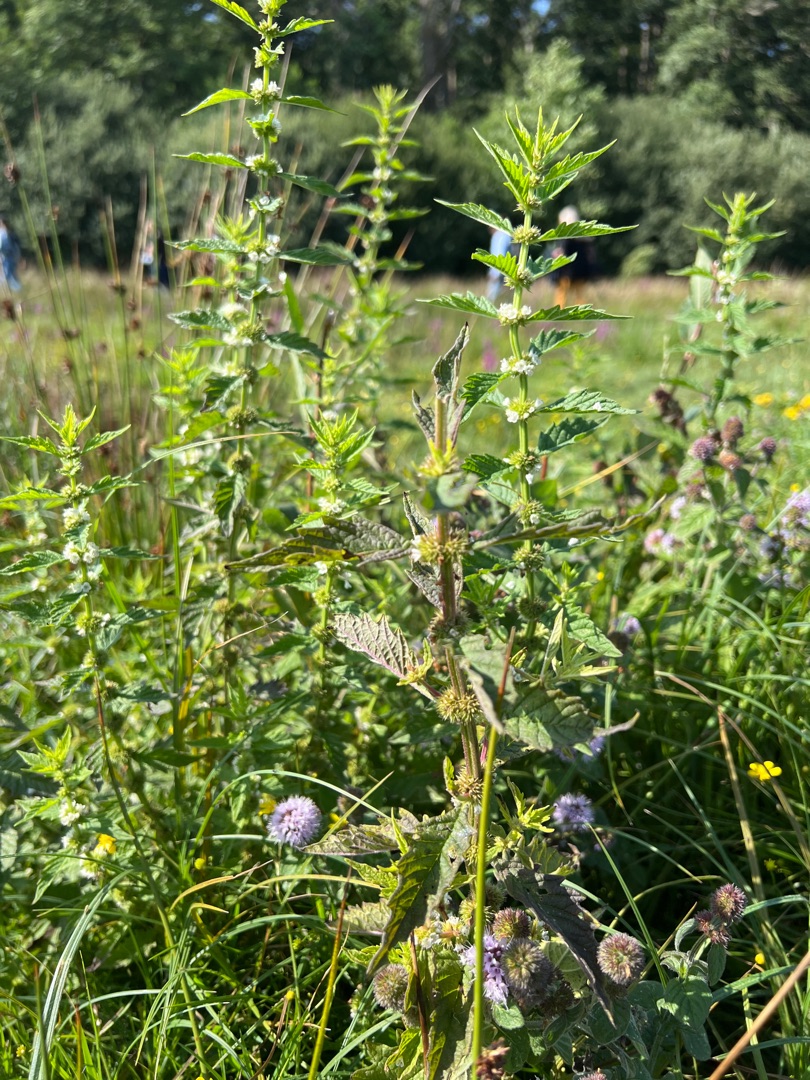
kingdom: Plantae
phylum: Tracheophyta
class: Magnoliopsida
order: Lamiales
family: Lamiaceae
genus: Lycopus
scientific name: Lycopus europaeus
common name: Sværtevæld
